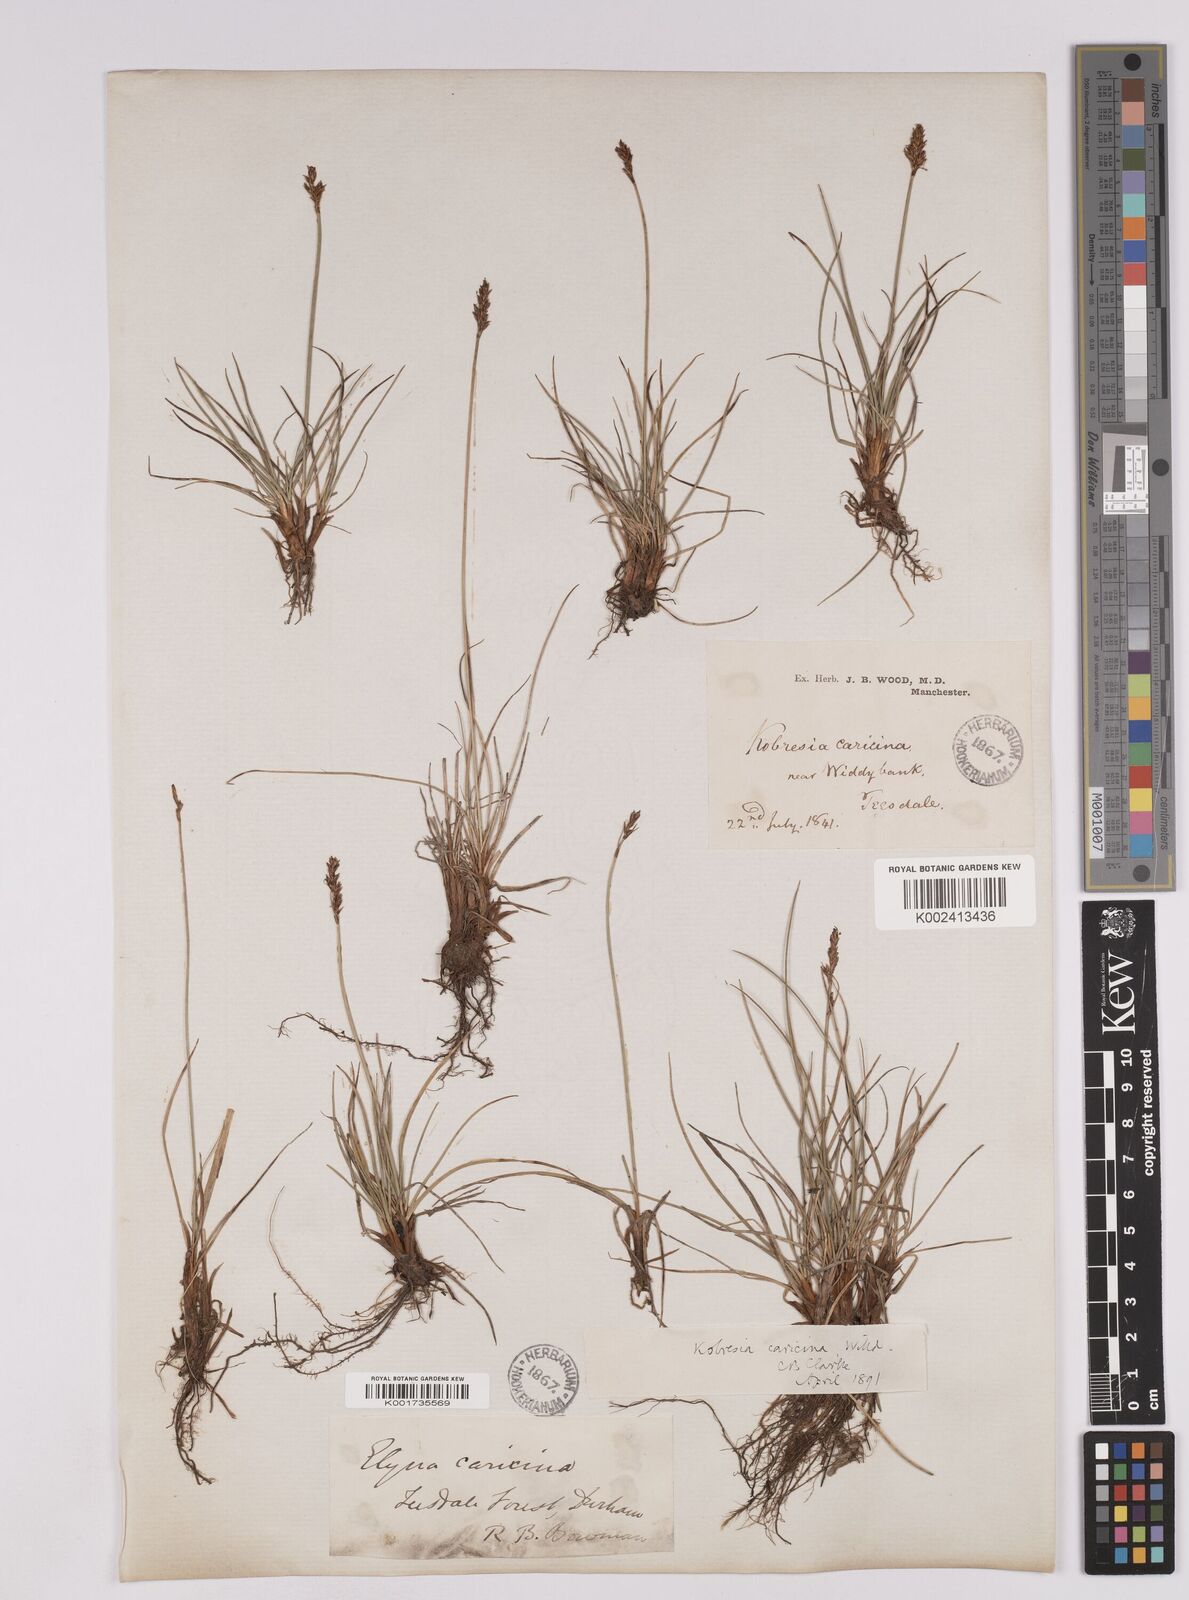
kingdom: Plantae
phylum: Tracheophyta
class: Liliopsida
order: Poales
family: Cyperaceae
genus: Carex
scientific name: Carex simpliciuscula
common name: Simple bog sedge
